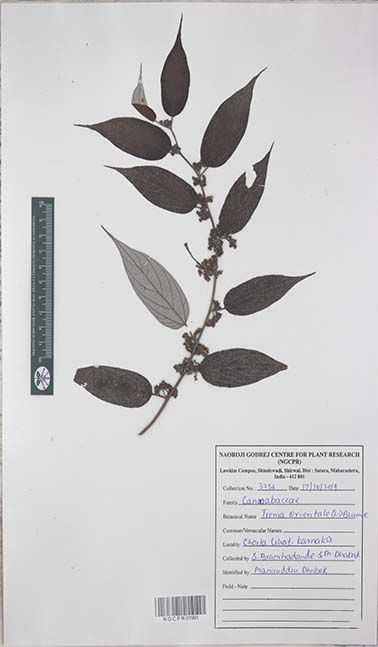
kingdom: Plantae
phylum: Tracheophyta
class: Magnoliopsida
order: Rosales
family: Cannabaceae
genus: Trema
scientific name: Trema orientale
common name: Indian charcoal tree
